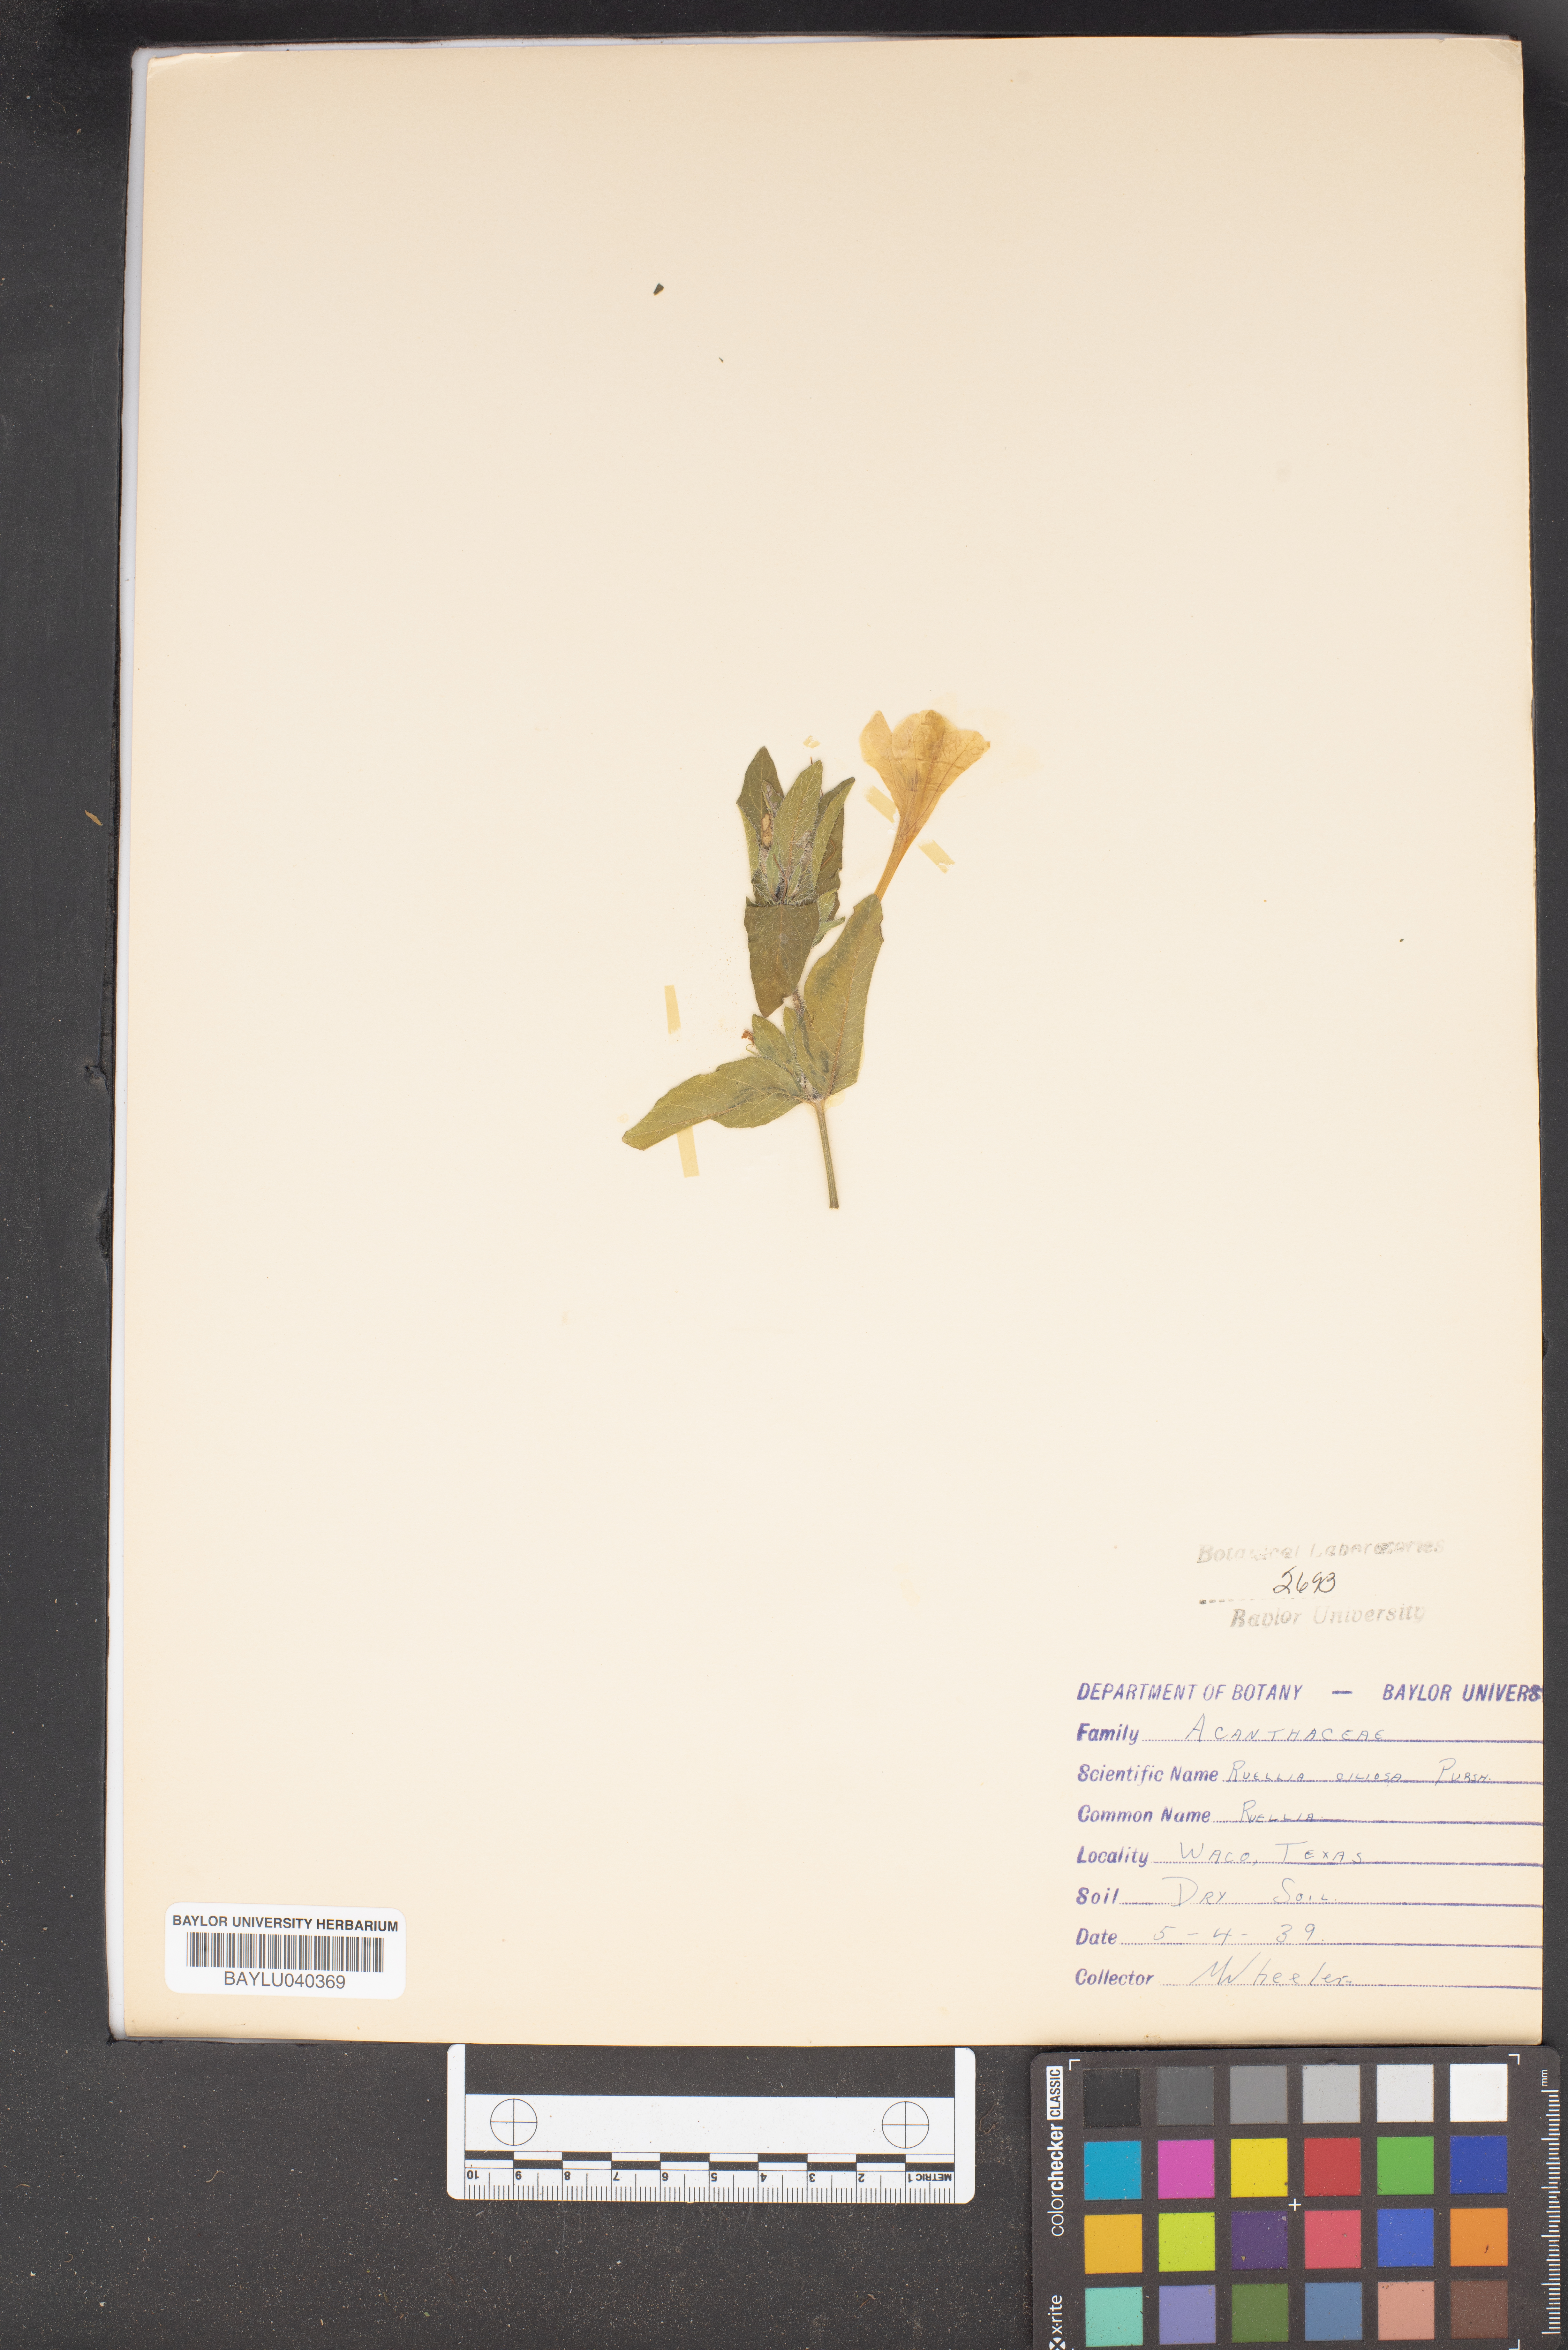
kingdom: Plantae
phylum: Tracheophyta
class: Magnoliopsida
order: Lamiales
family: Acanthaceae
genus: Ruellia
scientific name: Ruellia caroliniensis
